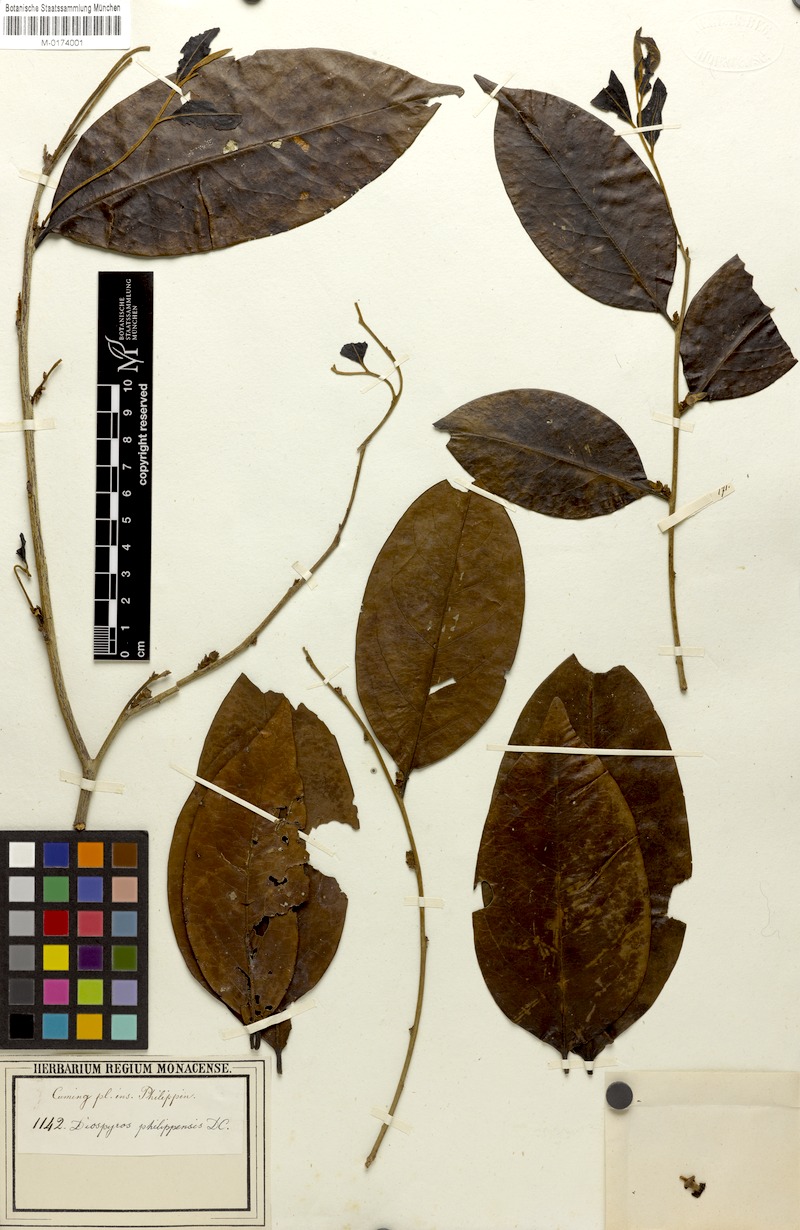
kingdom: Plantae
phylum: Tracheophyta
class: Magnoliopsida
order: Ericales
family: Ebenaceae
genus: Diospyros
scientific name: Diospyros philippinensis
